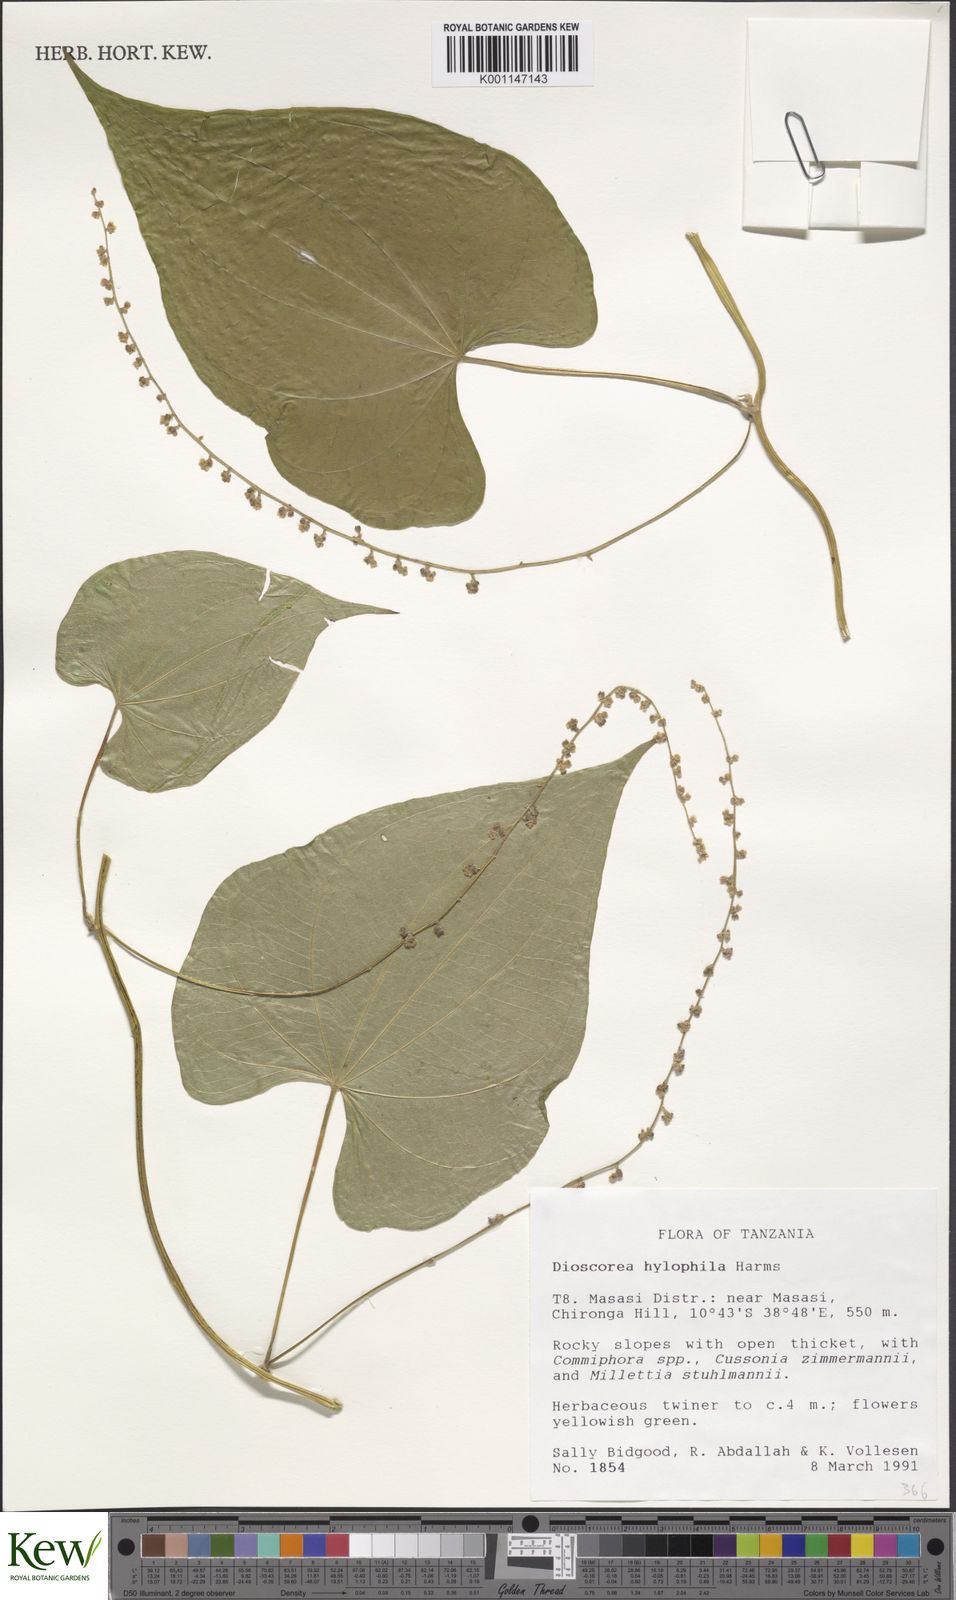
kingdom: Plantae
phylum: Tracheophyta
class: Liliopsida
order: Dioscoreales
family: Dioscoreaceae
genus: Dioscorea
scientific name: Dioscorea
